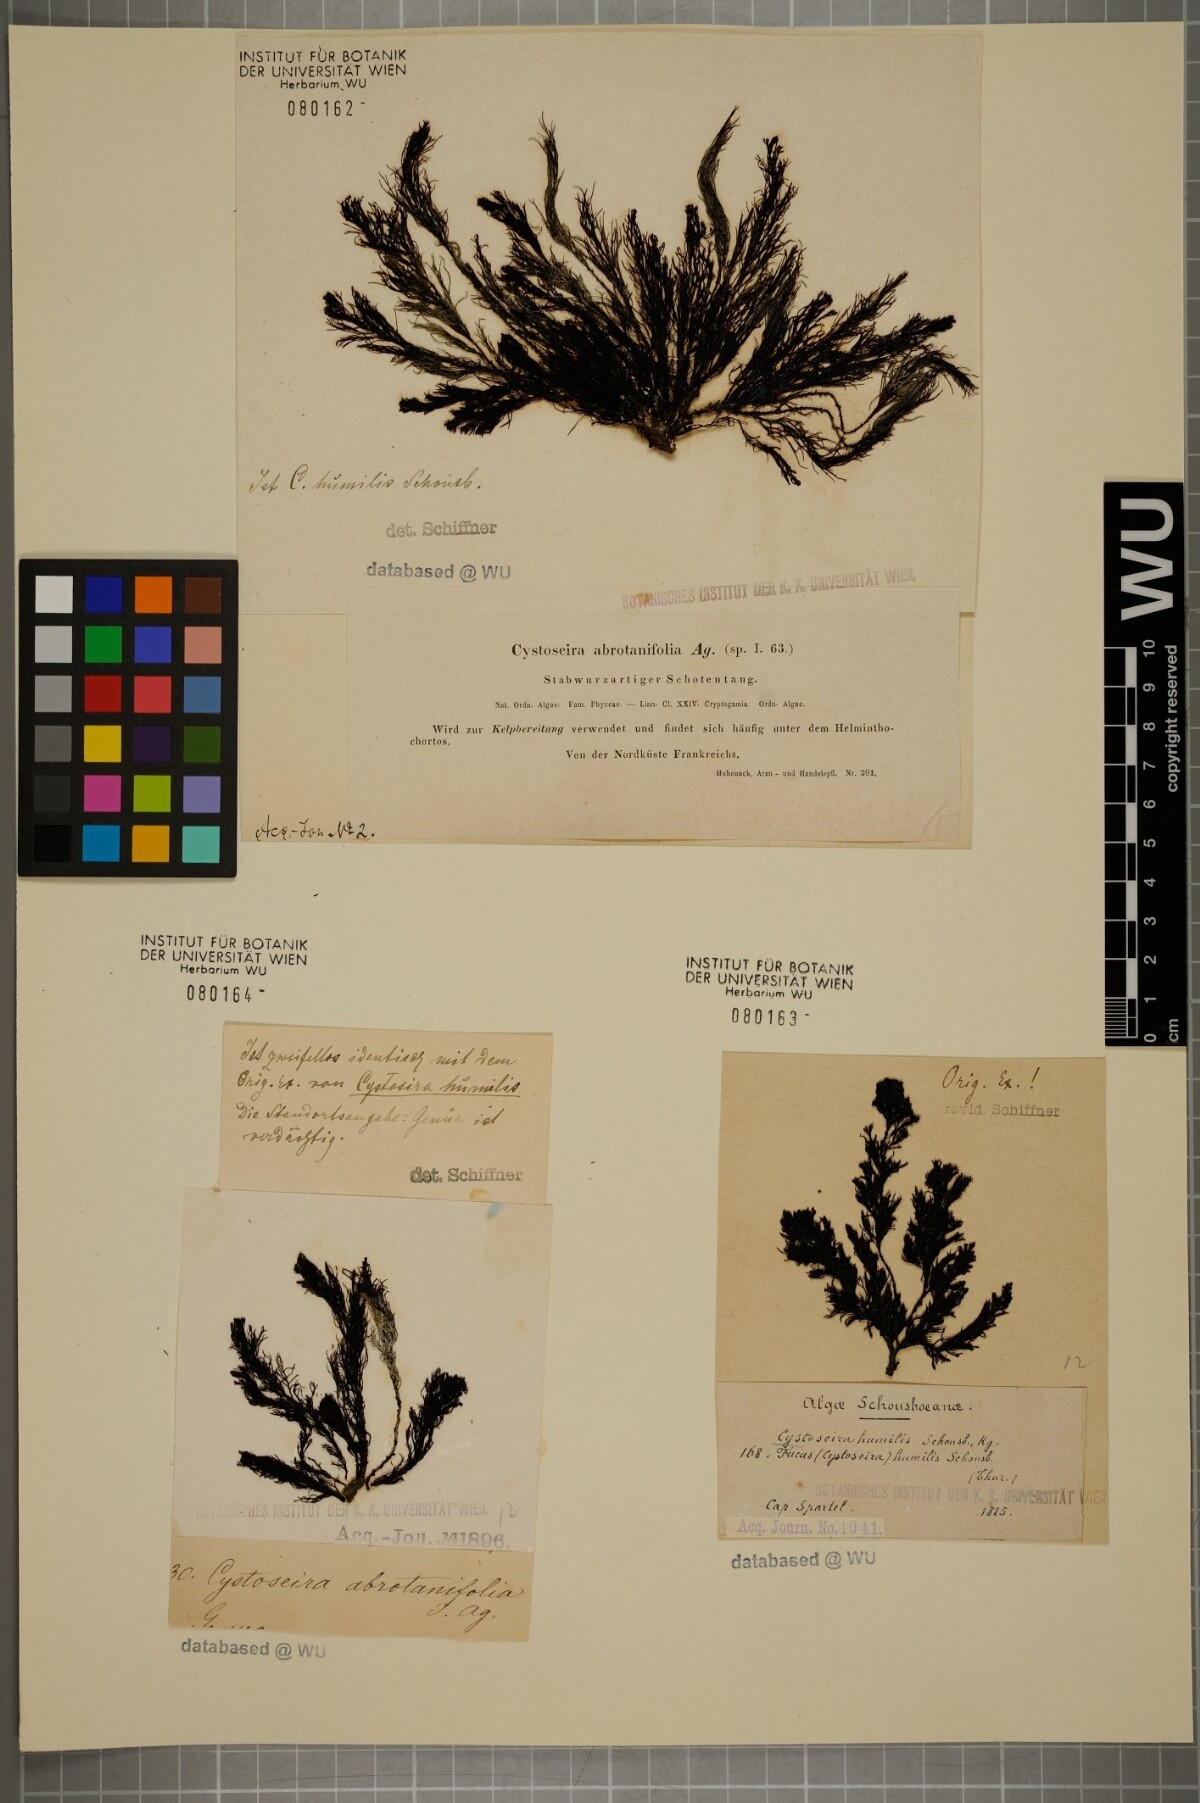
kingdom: Chromista
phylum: Ochrophyta
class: Phaeophyceae
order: Fucales
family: Sargassaceae
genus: Cystoseira
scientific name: Cystoseira humilis
